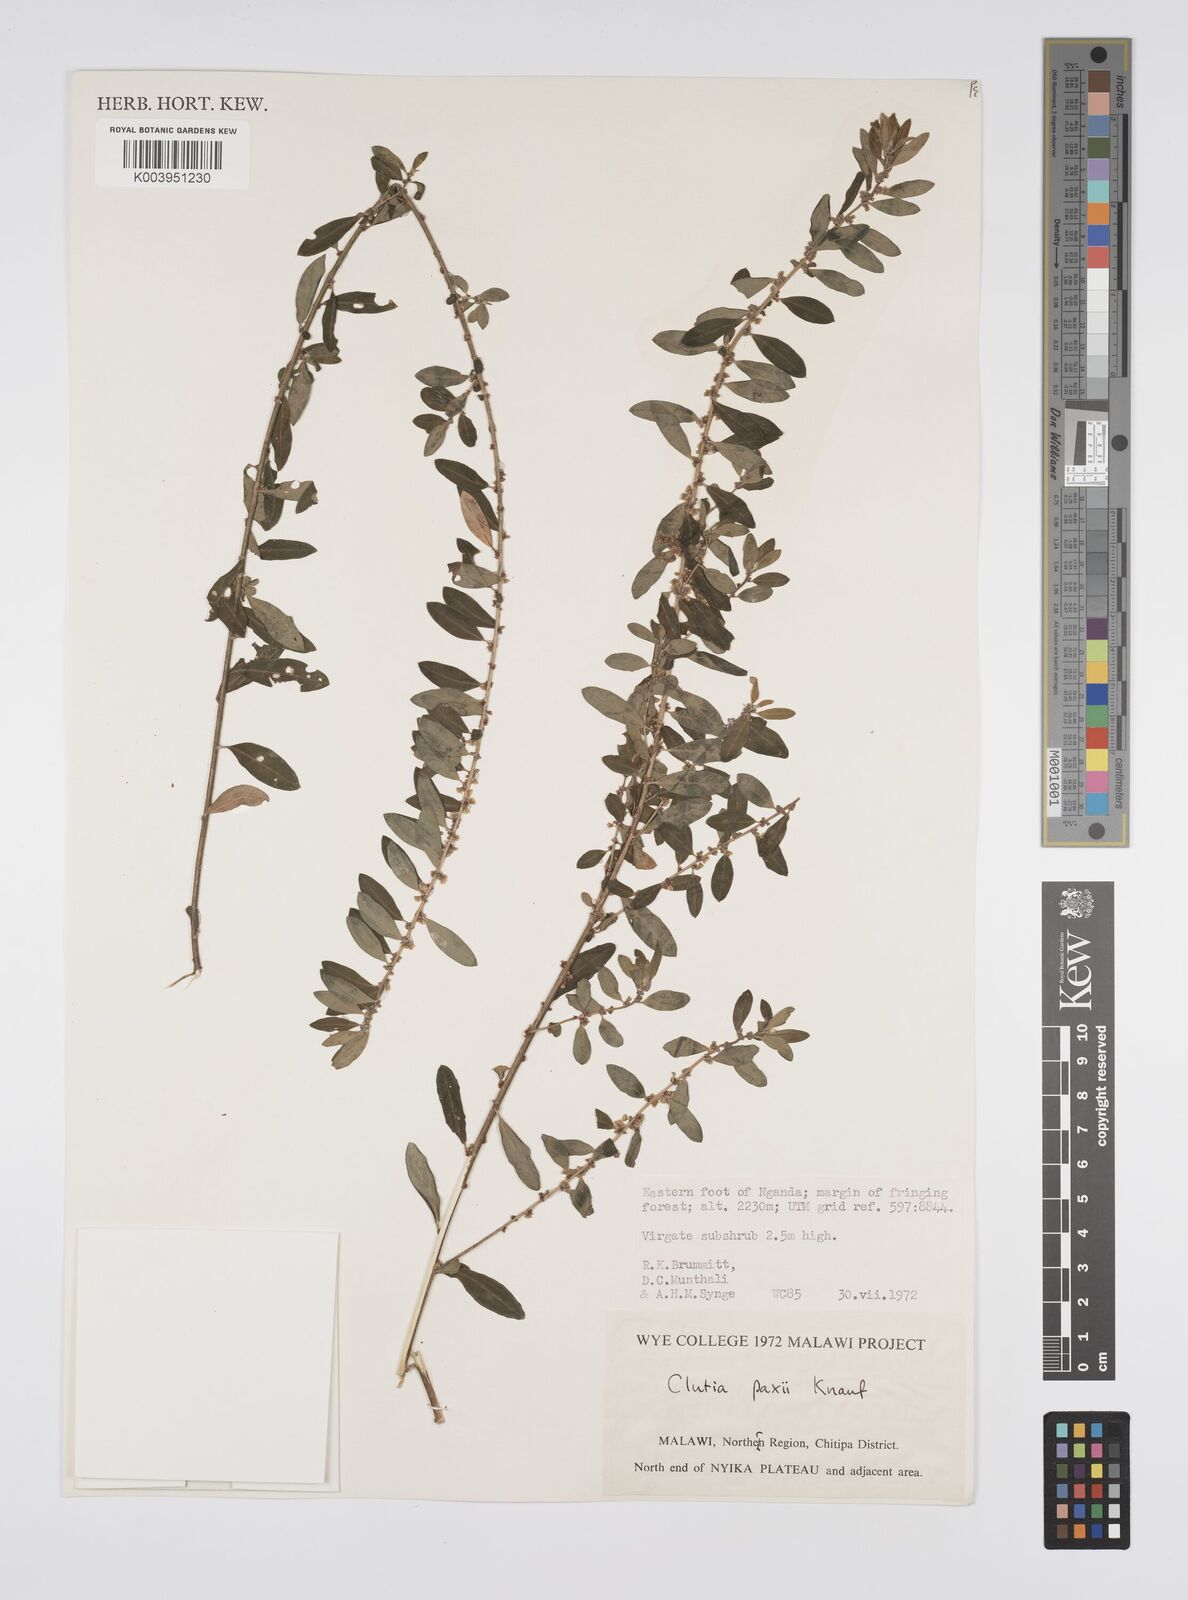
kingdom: Plantae
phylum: Tracheophyta
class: Magnoliopsida
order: Malpighiales
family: Peraceae
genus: Clutia
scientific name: Clutia paxii
